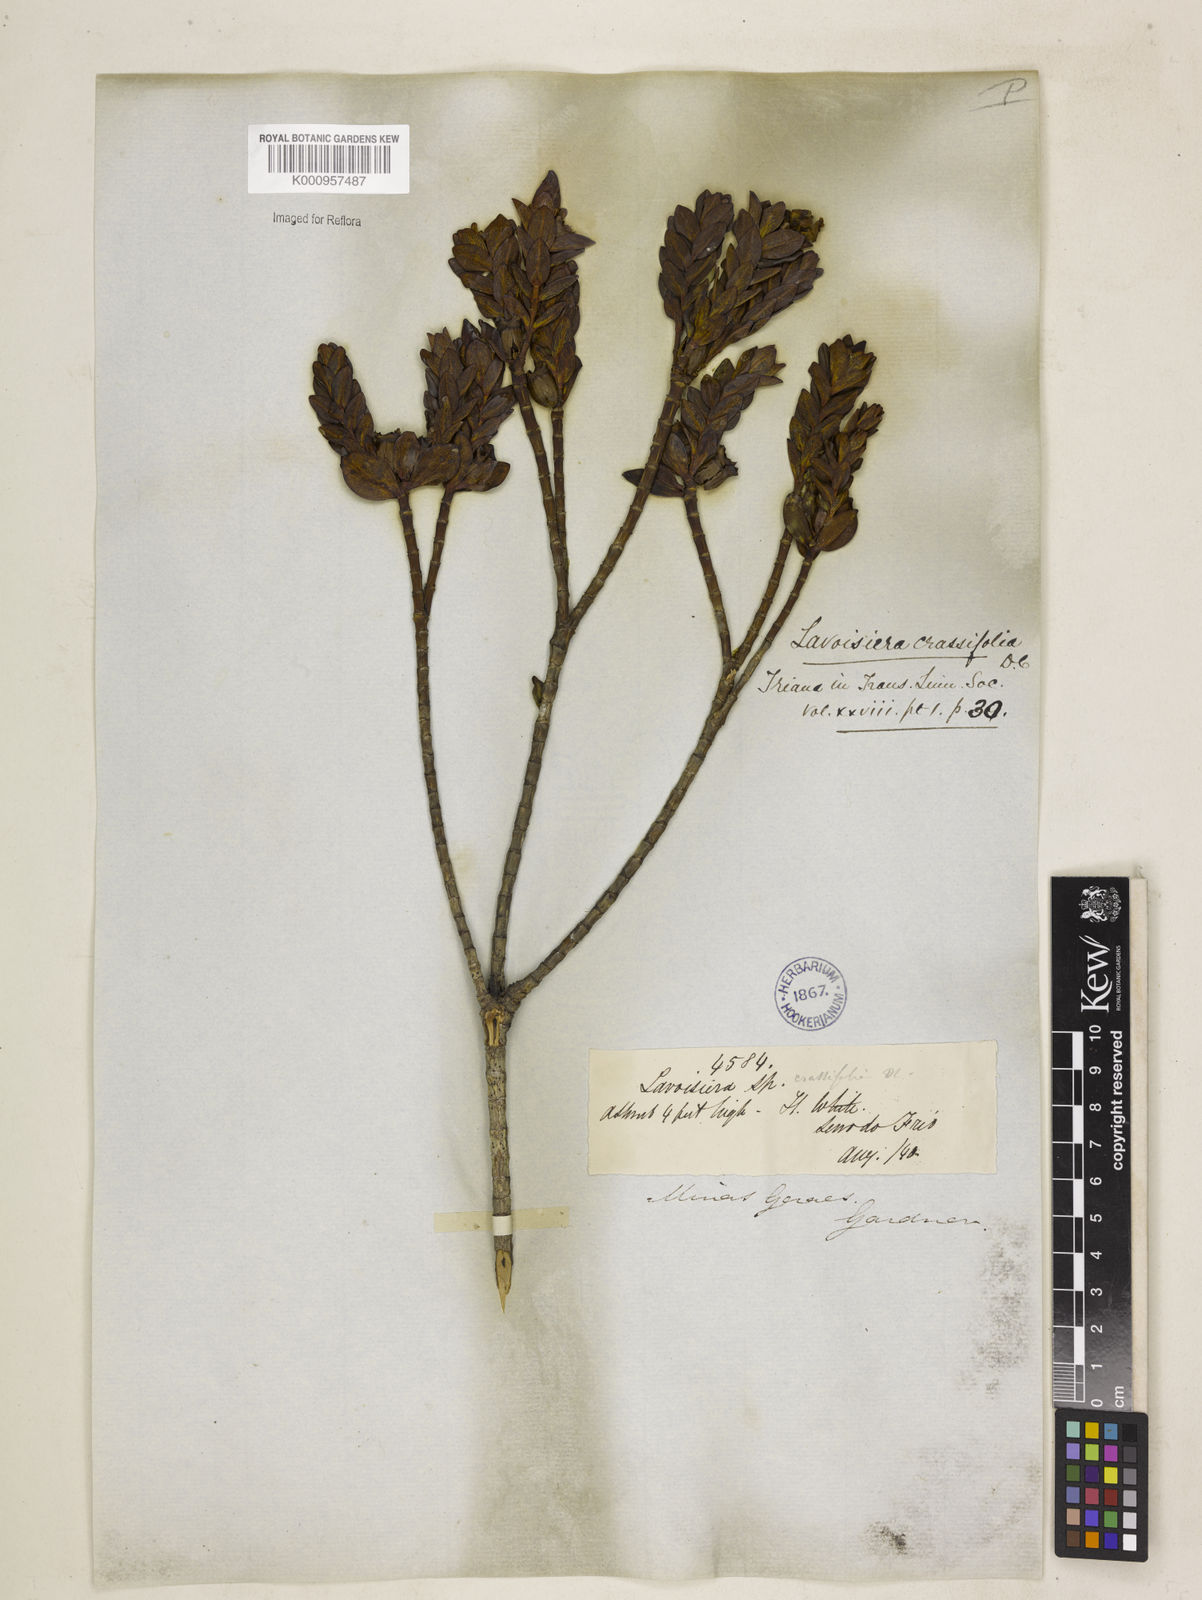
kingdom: Plantae
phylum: Tracheophyta
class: Magnoliopsida
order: Myrtales
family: Melastomataceae
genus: Microlicia
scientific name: Microlicia crassifolia
